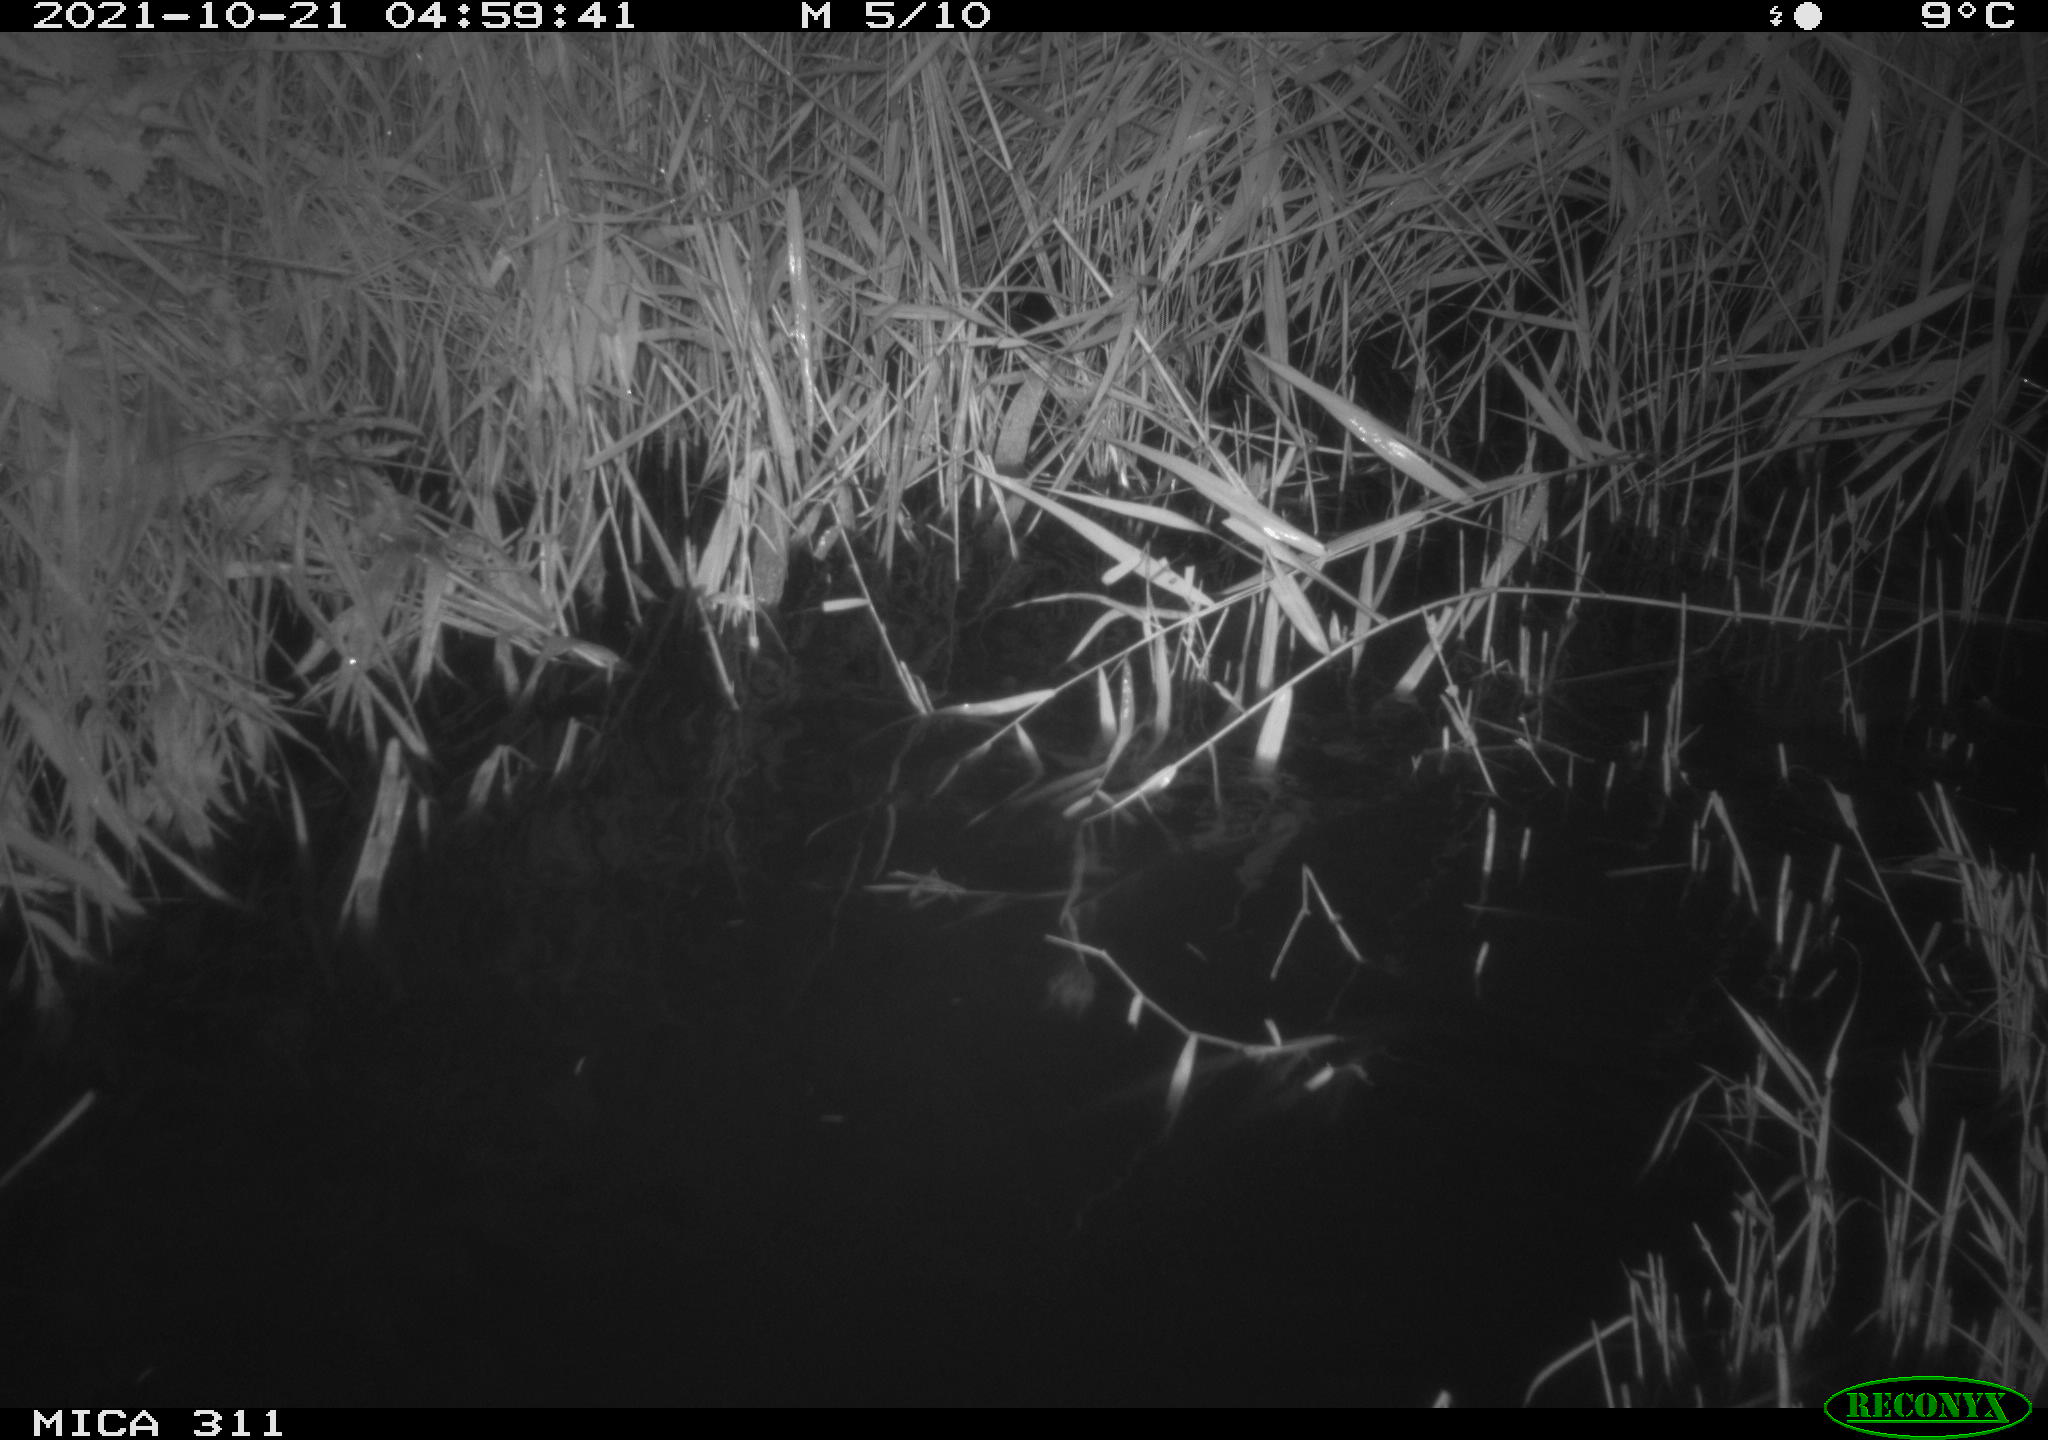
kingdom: Animalia
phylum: Chordata
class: Mammalia
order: Rodentia
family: Muridae
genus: Rattus
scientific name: Rattus norvegicus
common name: Brown rat
